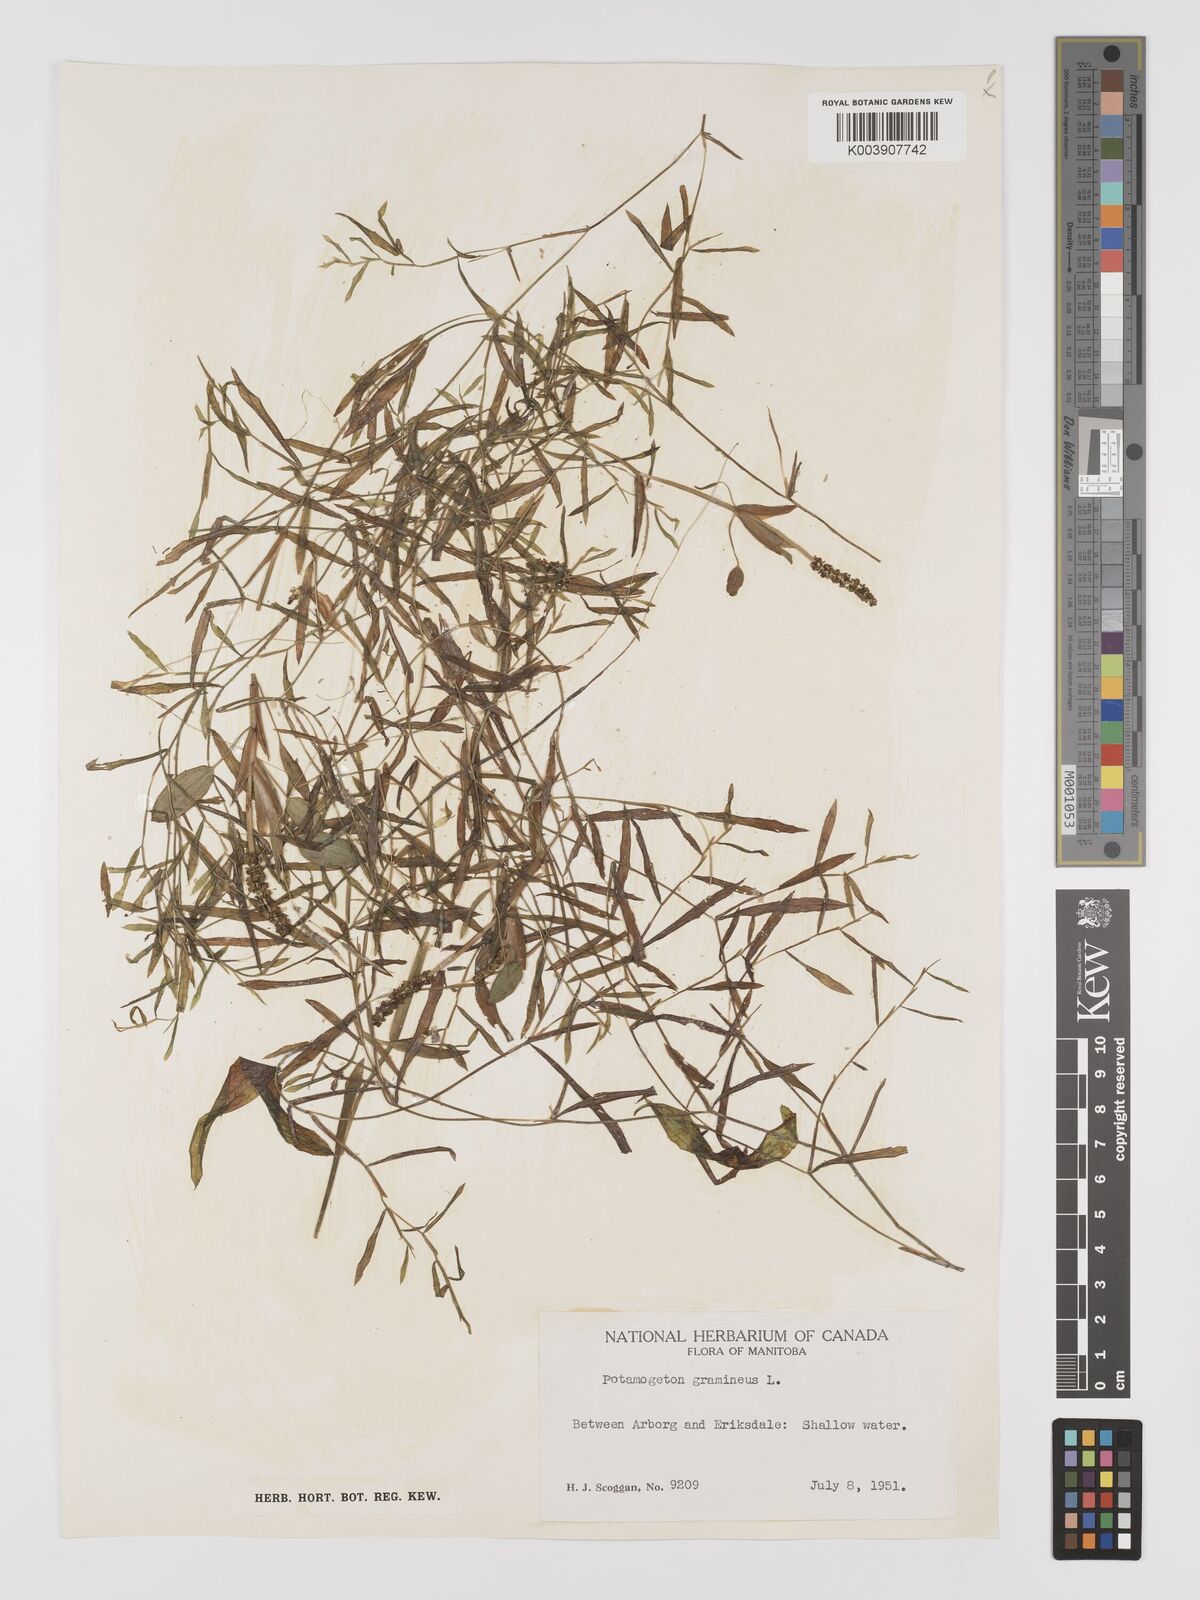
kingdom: Plantae
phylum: Tracheophyta
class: Liliopsida
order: Alismatales
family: Potamogetonaceae
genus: Potamogeton
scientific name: Potamogeton gramineus
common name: Various-leaved pondweed
